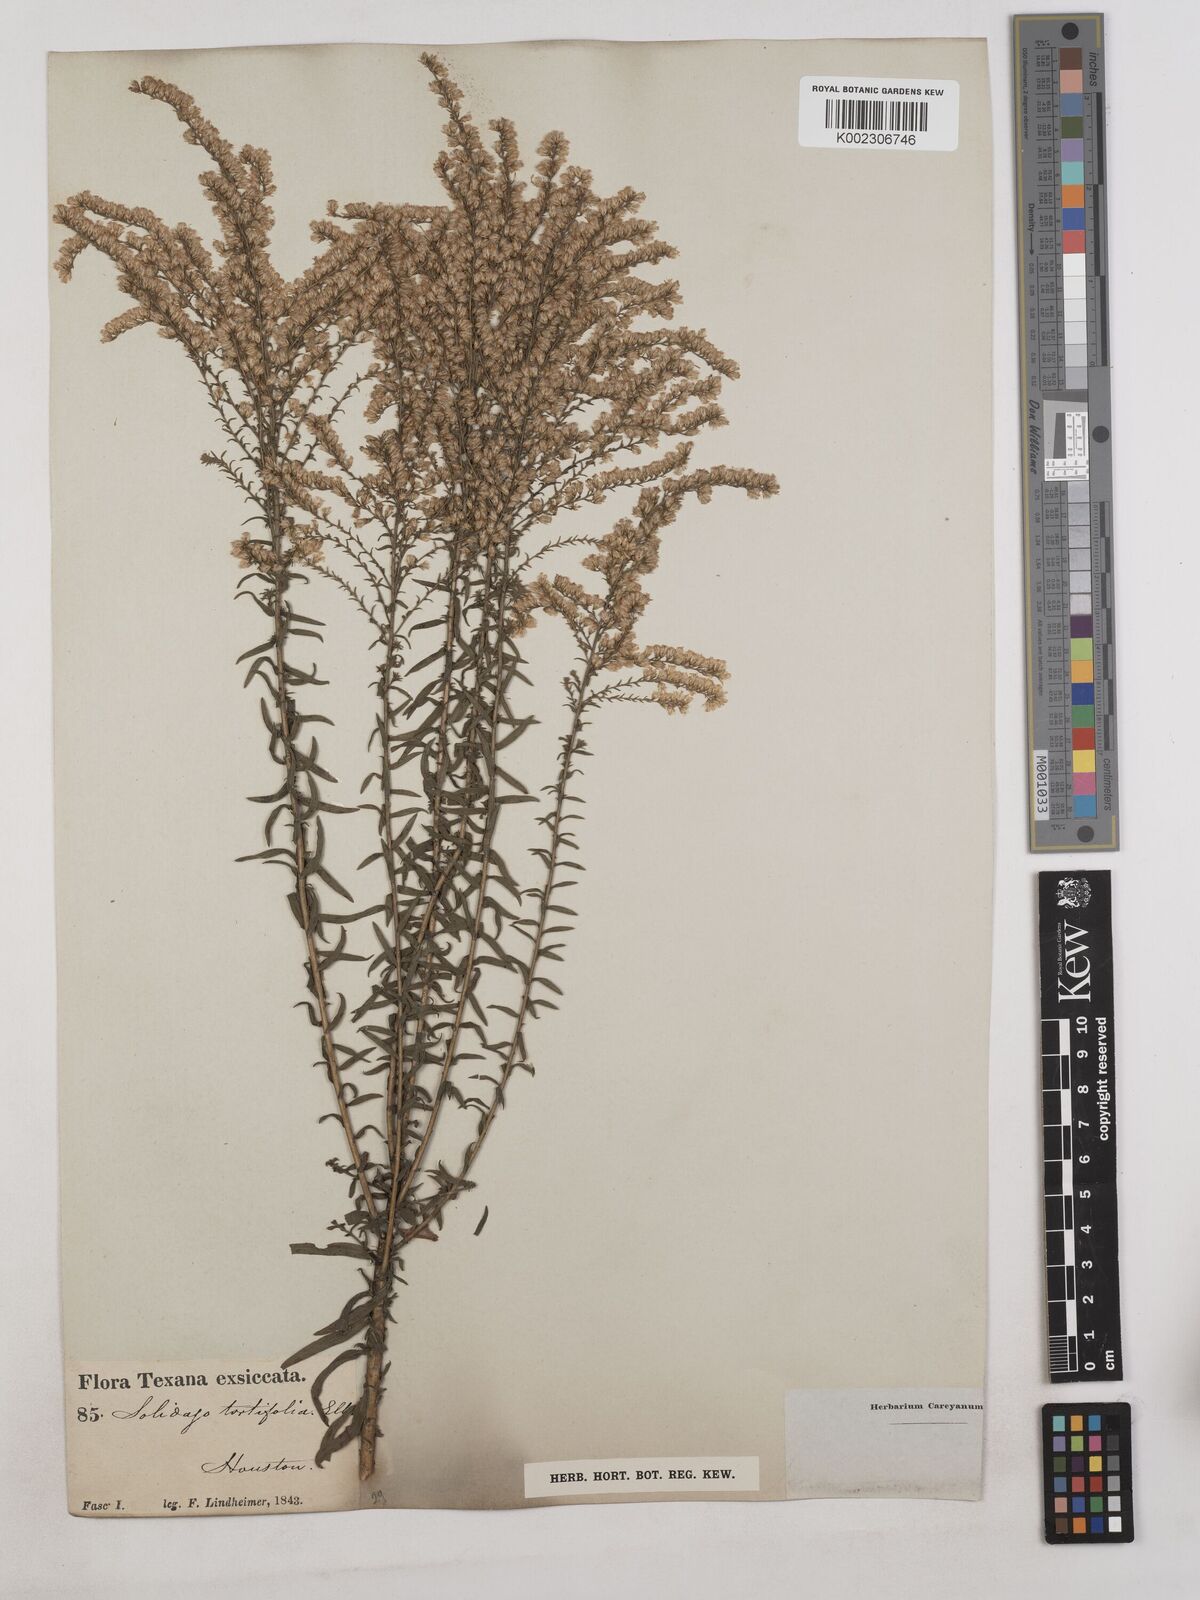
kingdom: Plantae
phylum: Tracheophyta
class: Magnoliopsida
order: Asterales
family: Asteraceae
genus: Solidago
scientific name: Solidago tortifolia
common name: Twisted-leaf goldenrod
